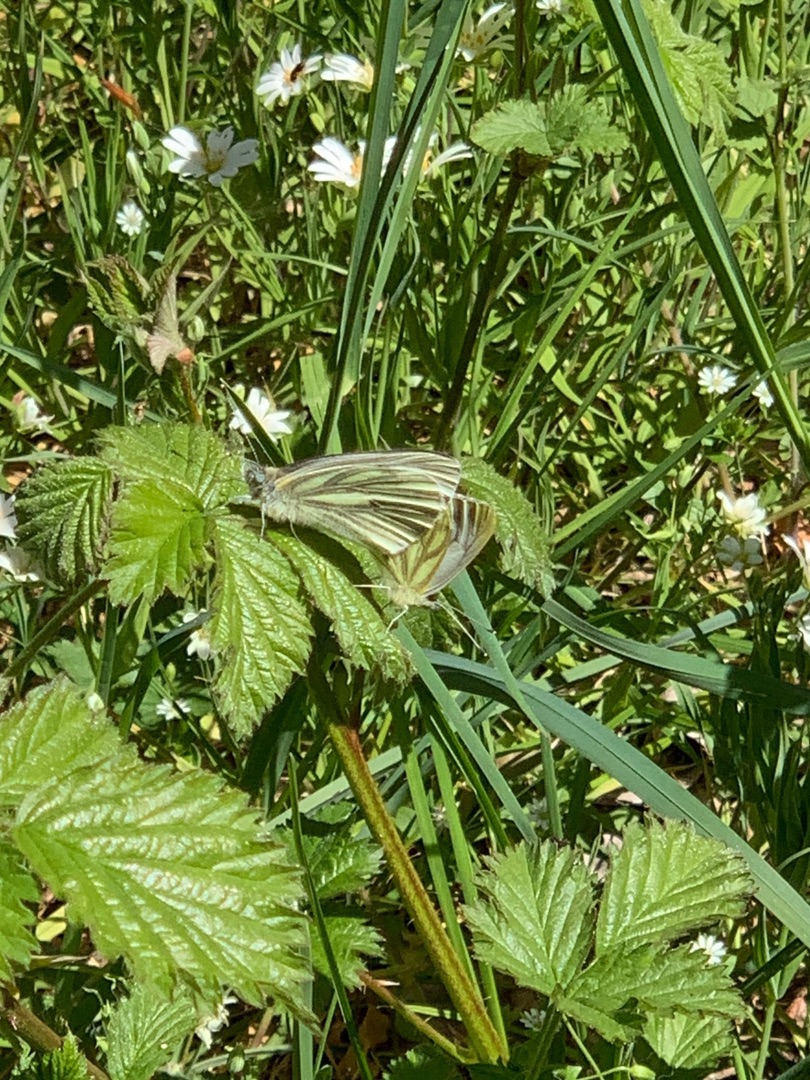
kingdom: Animalia
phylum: Arthropoda
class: Insecta
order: Lepidoptera
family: Pieridae
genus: Pieris
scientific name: Pieris napi
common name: Grønåret kålsommerfugl
